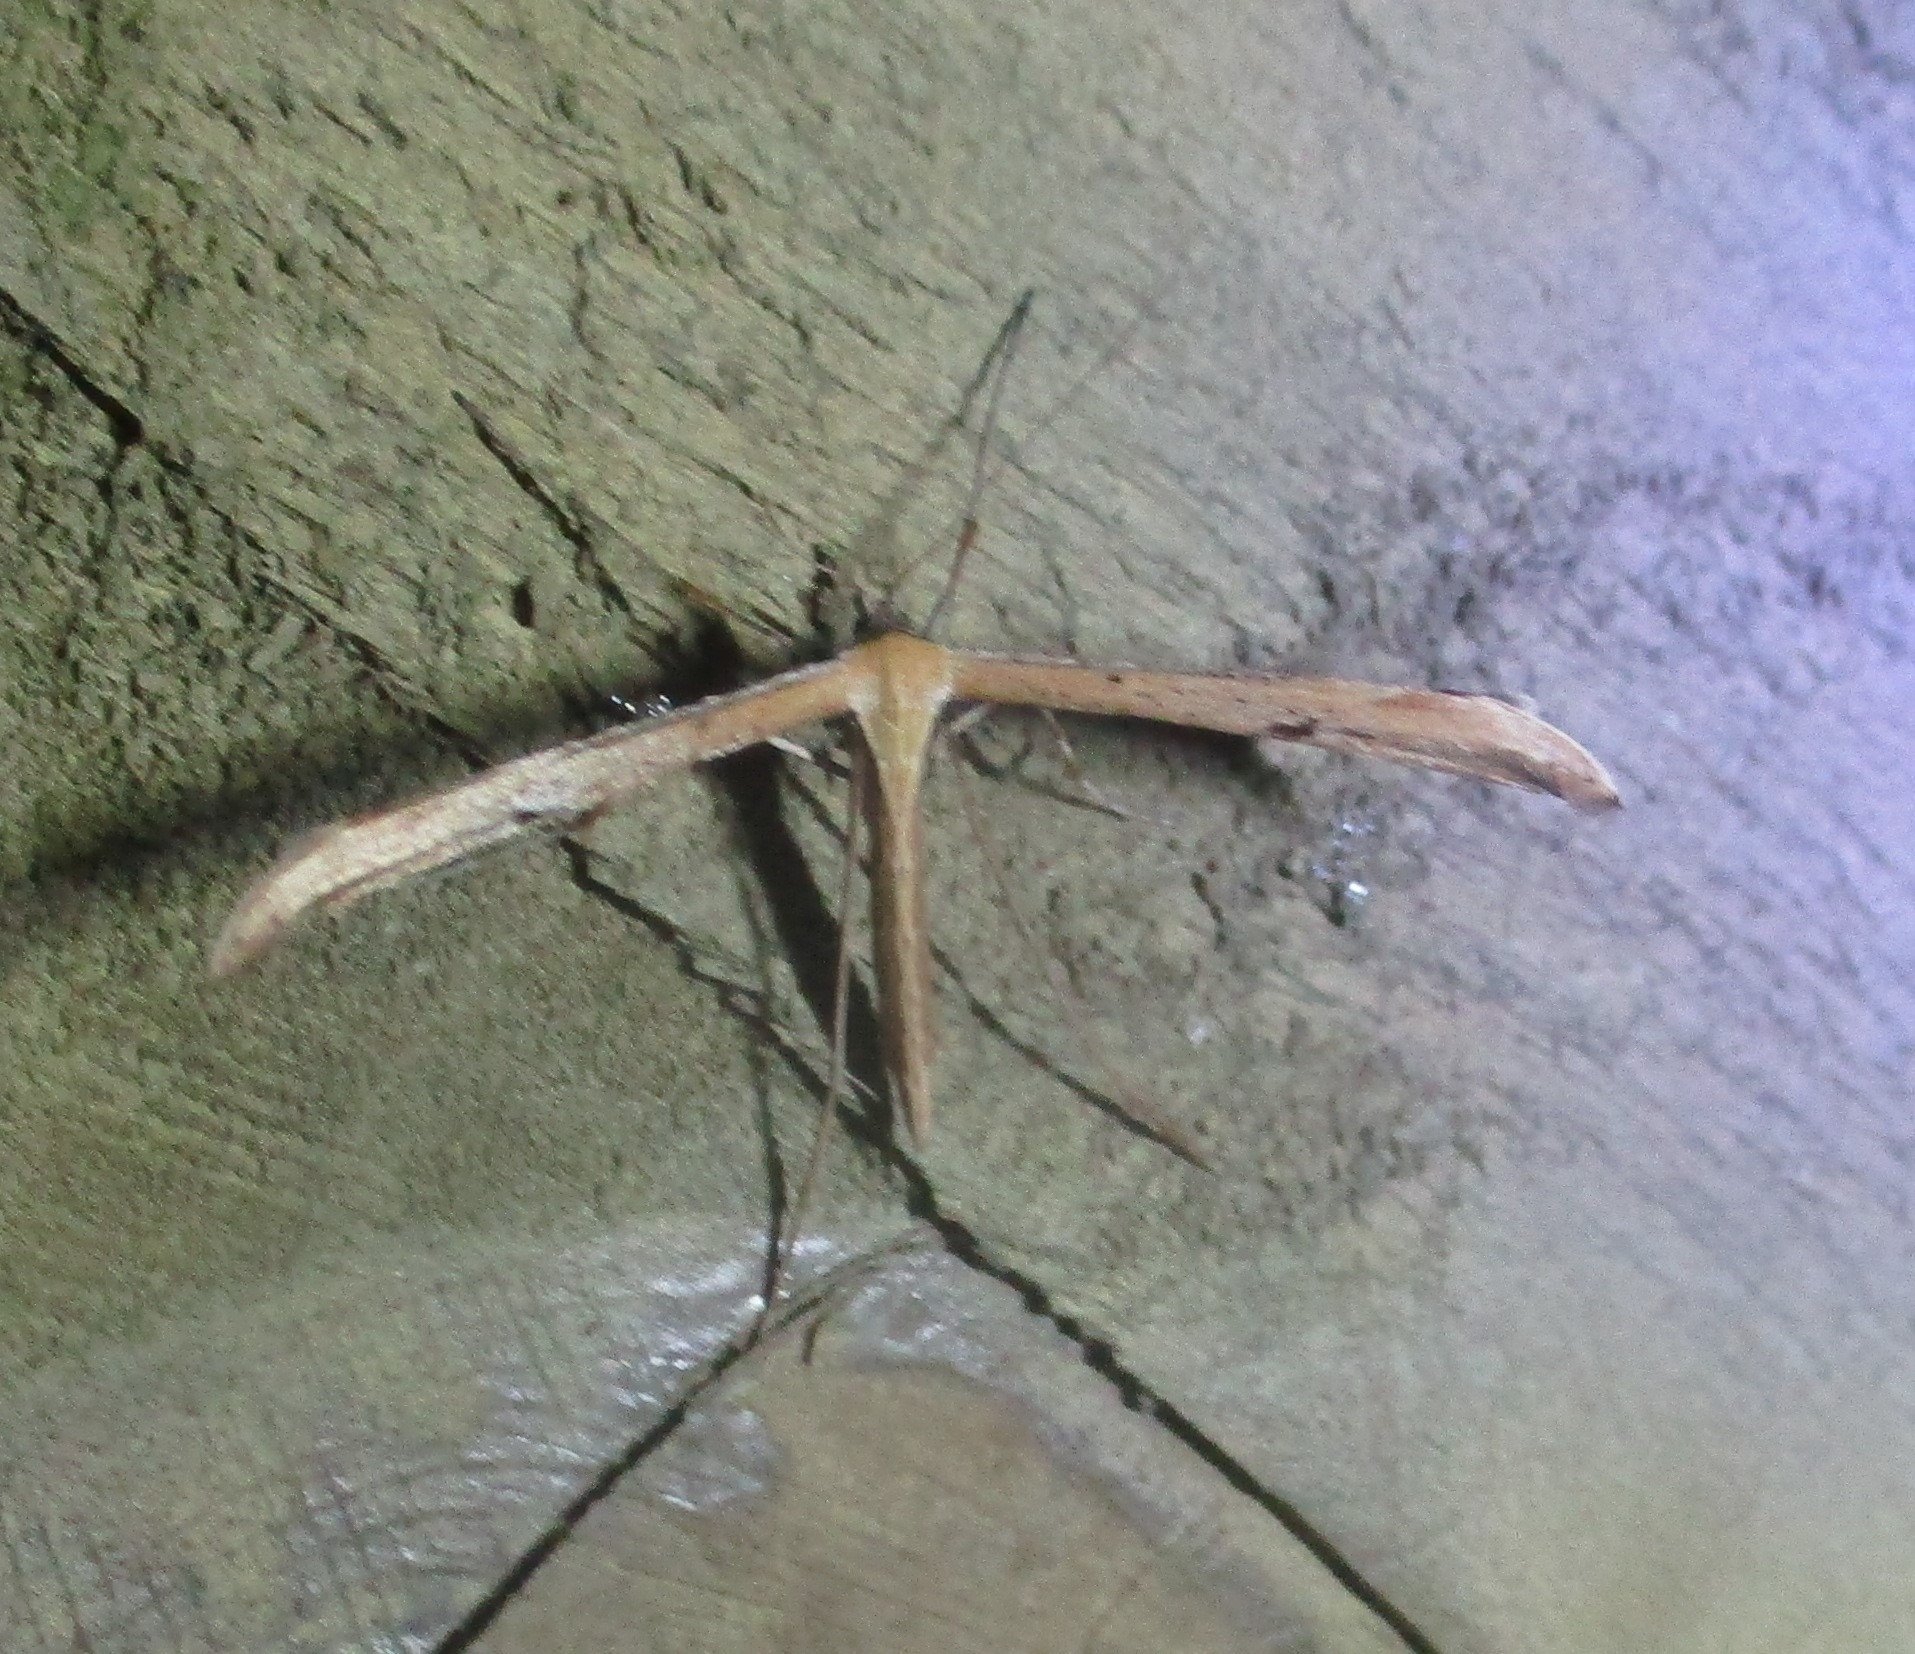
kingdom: Animalia
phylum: Arthropoda
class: Insecta
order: Lepidoptera
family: Pterophoridae
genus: Emmelina
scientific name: Emmelina monodactyla
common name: Snerlefjermøl
